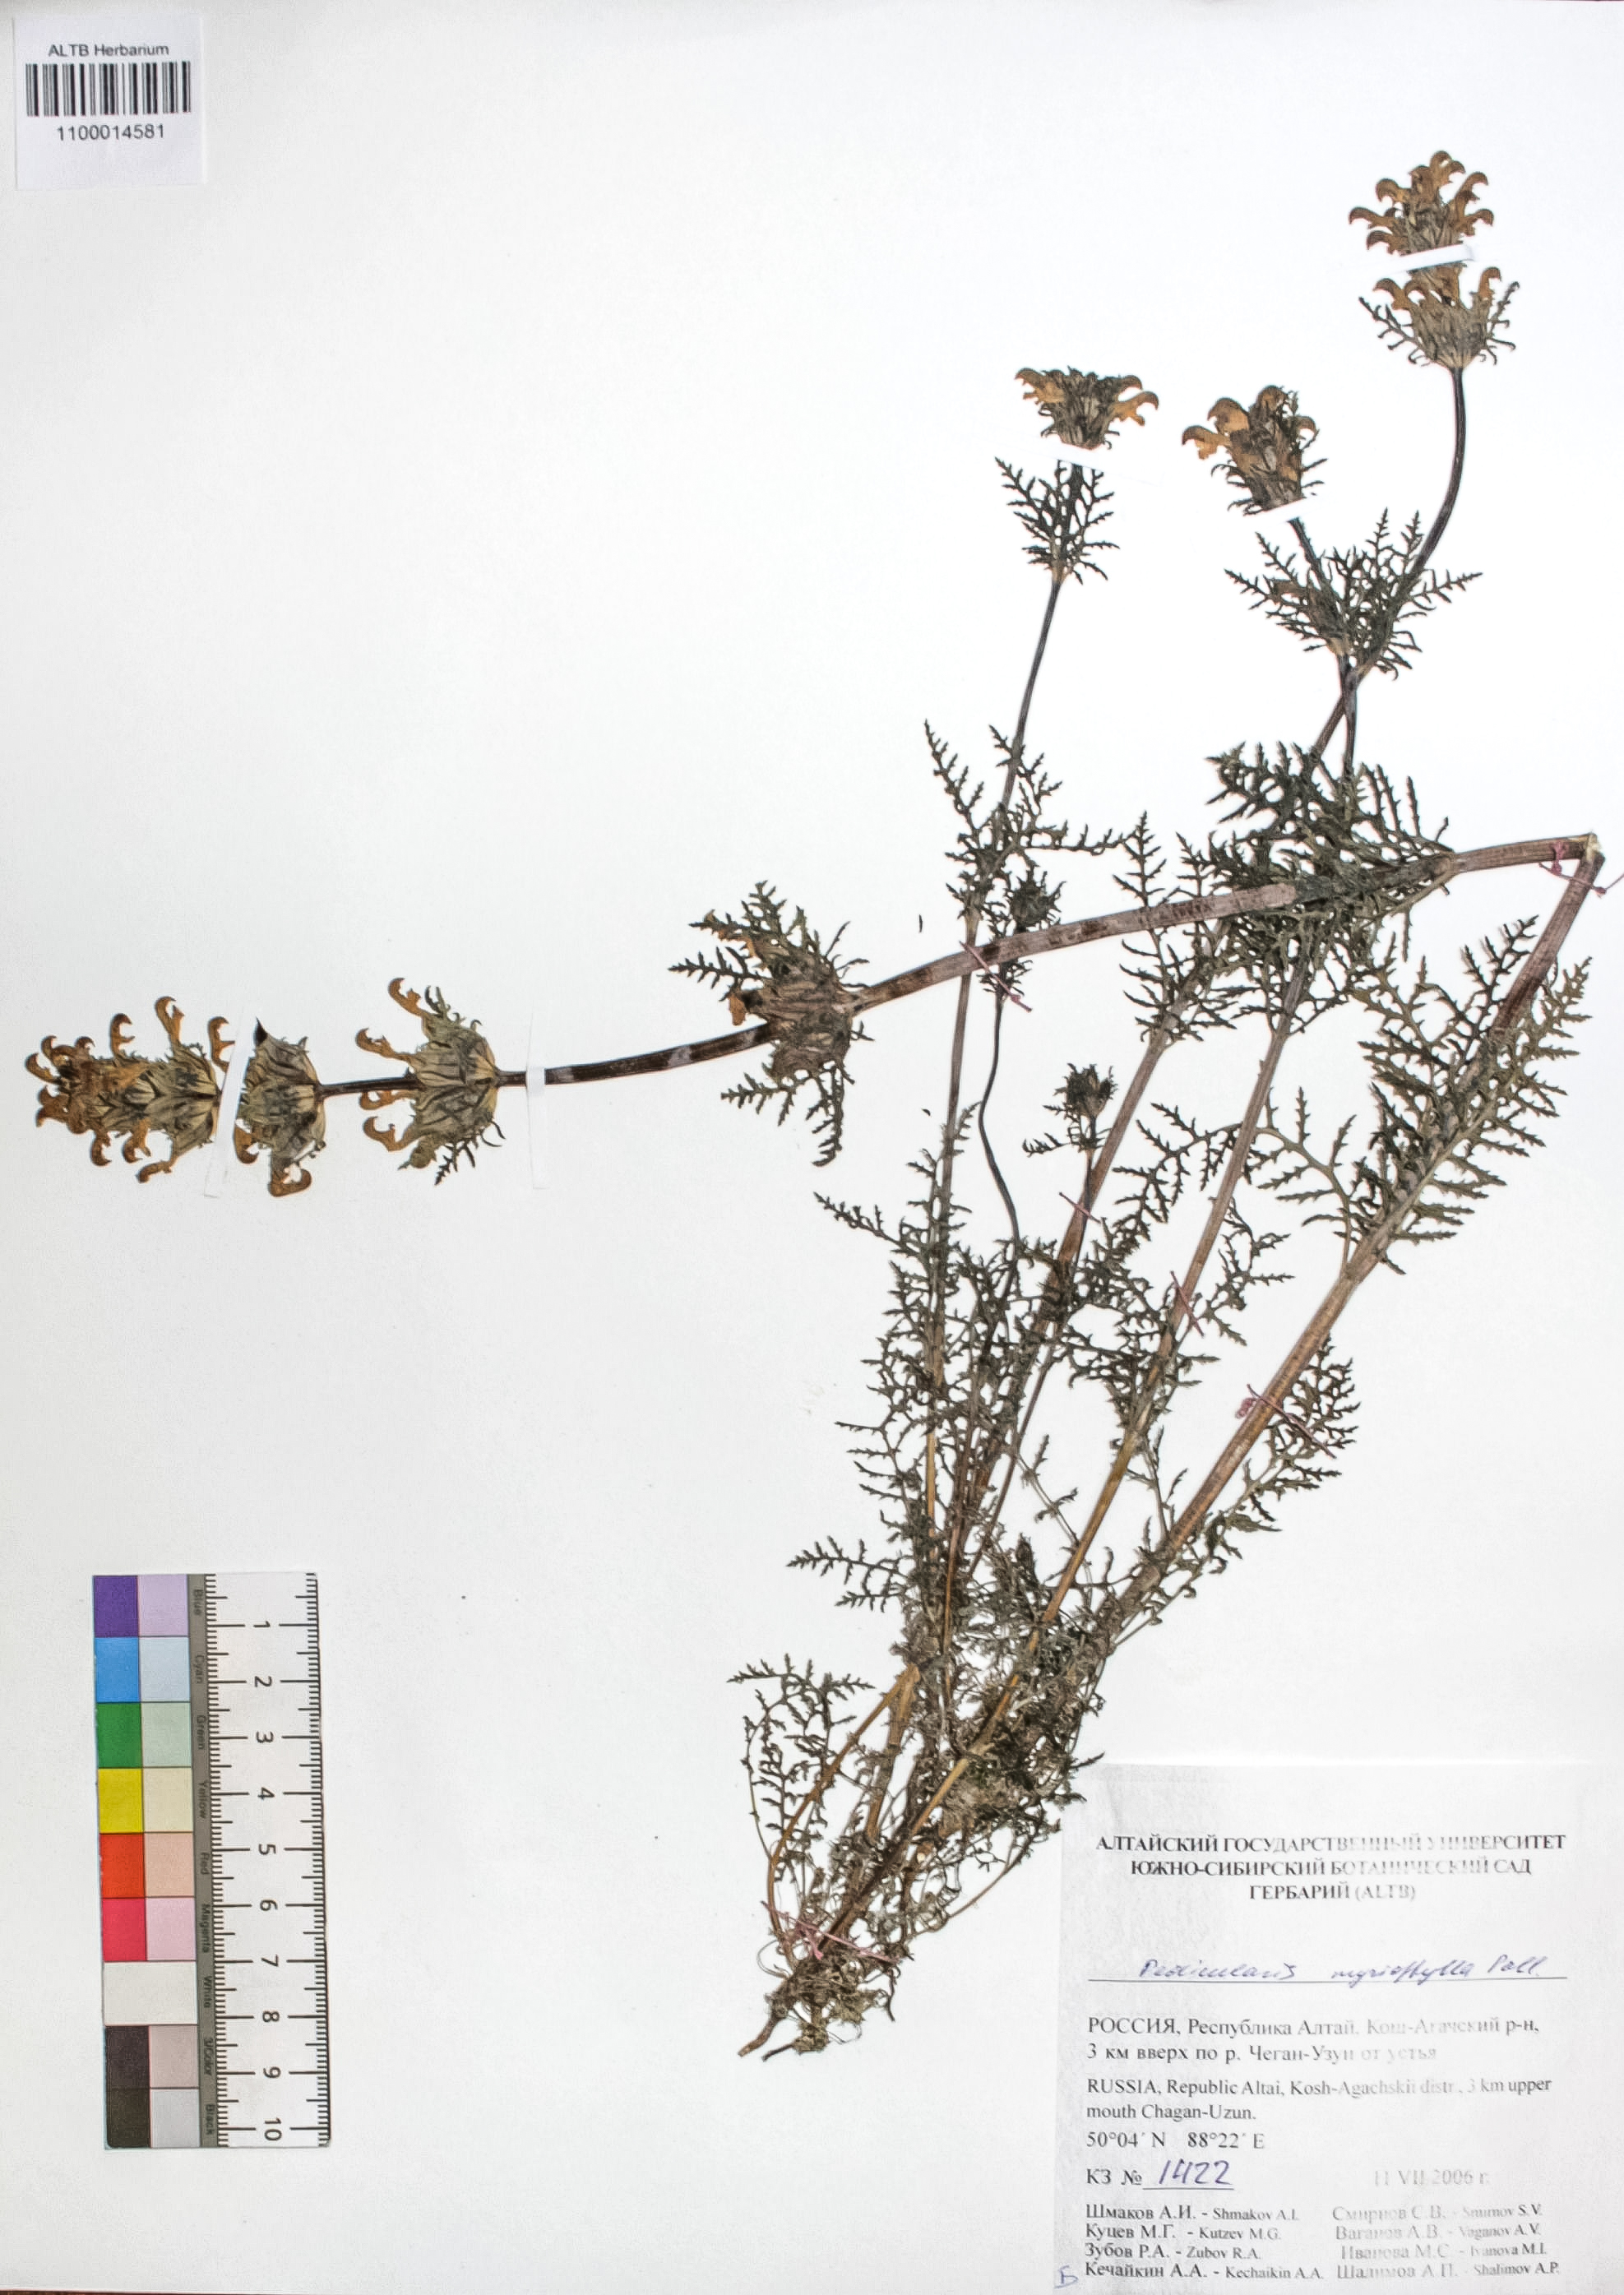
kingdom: Plantae
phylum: Tracheophyta
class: Magnoliopsida
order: Lamiales
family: Orobanchaceae
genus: Pedicularis
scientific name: Pedicularis myriophylla
